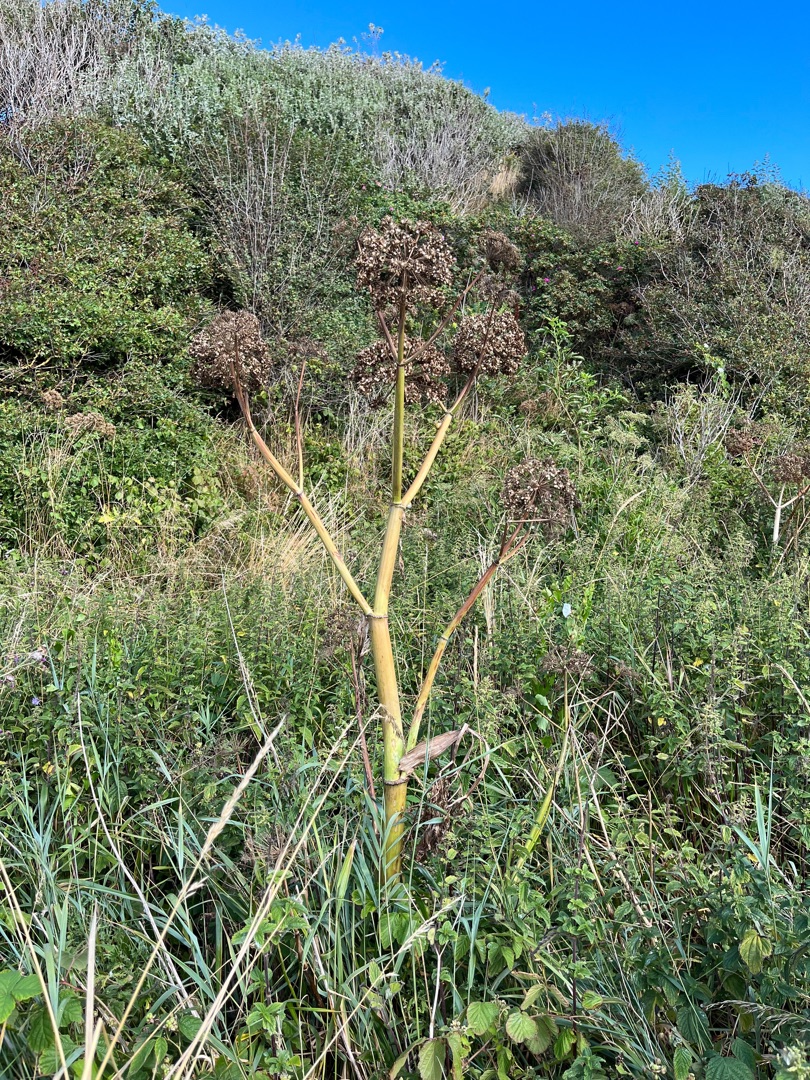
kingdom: Plantae
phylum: Tracheophyta
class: Magnoliopsida
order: Apiales
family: Apiaceae
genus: Angelica
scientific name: Angelica archangelica
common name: Kvan
